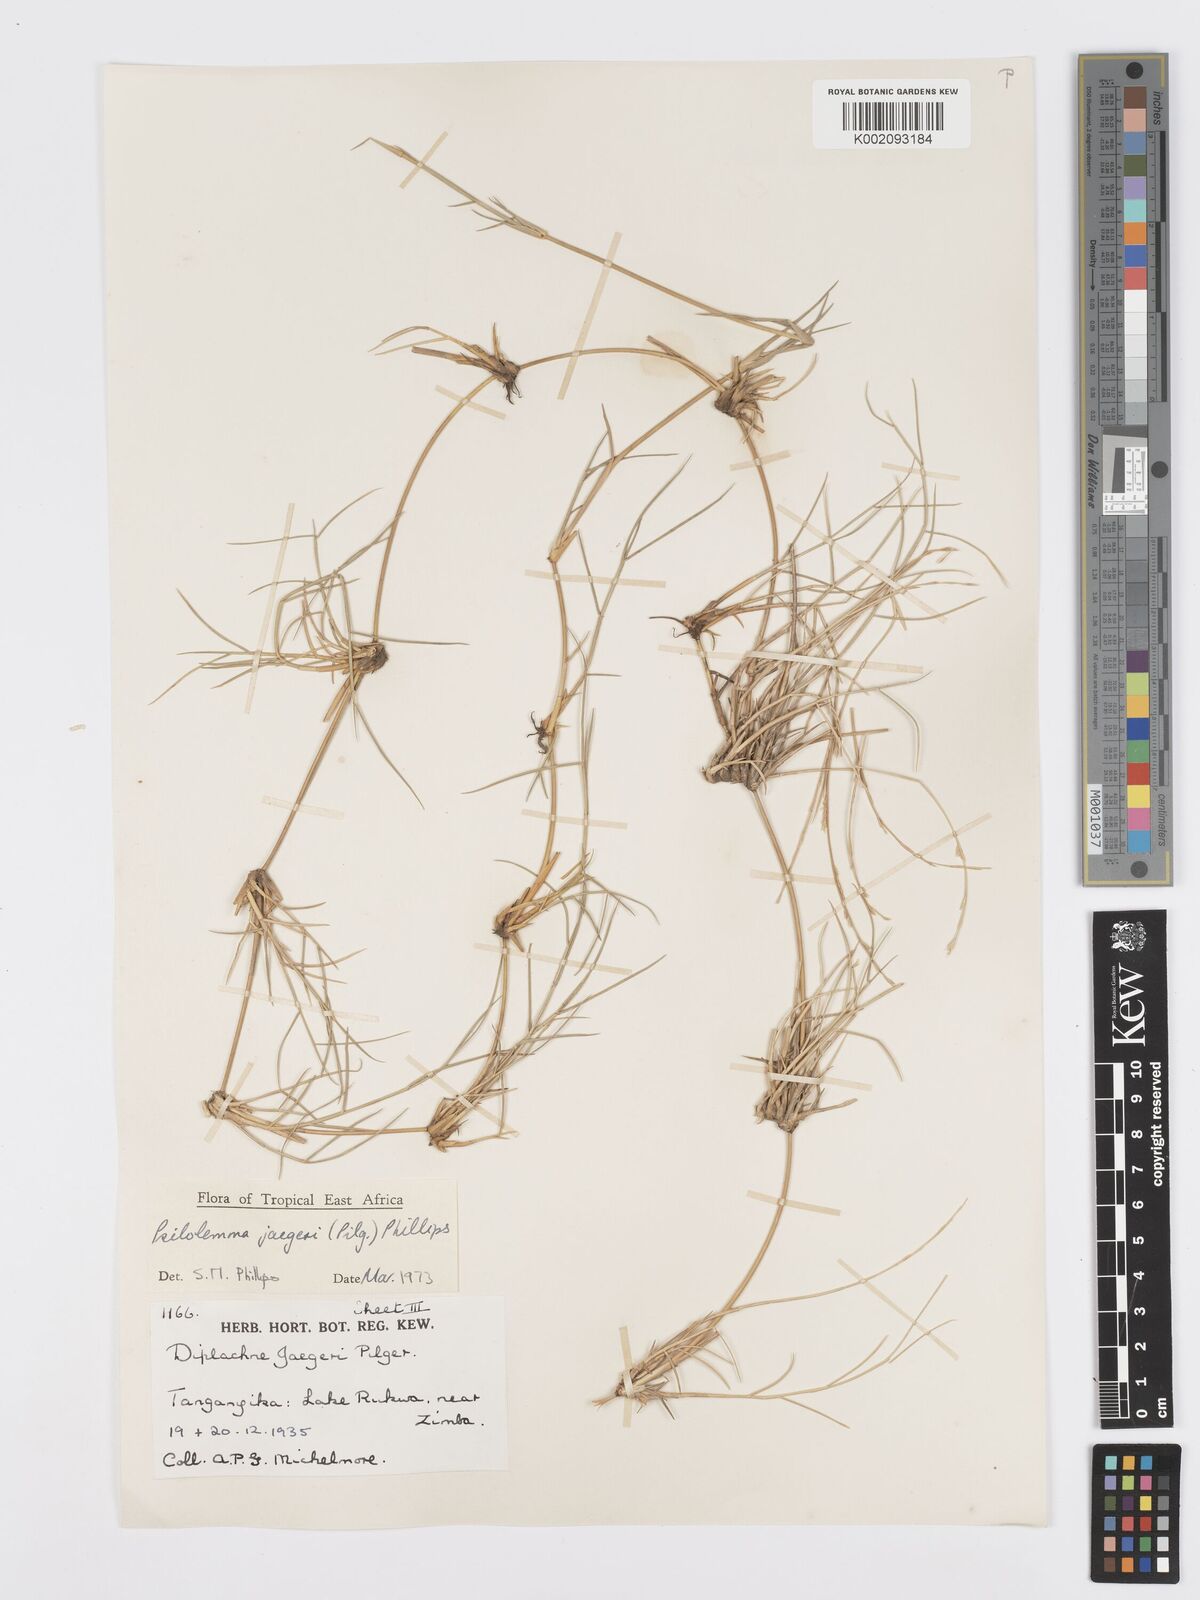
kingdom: Plantae
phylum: Tracheophyta
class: Liliopsida
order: Poales
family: Poaceae
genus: Psilolemma
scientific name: Psilolemma jaegeri
